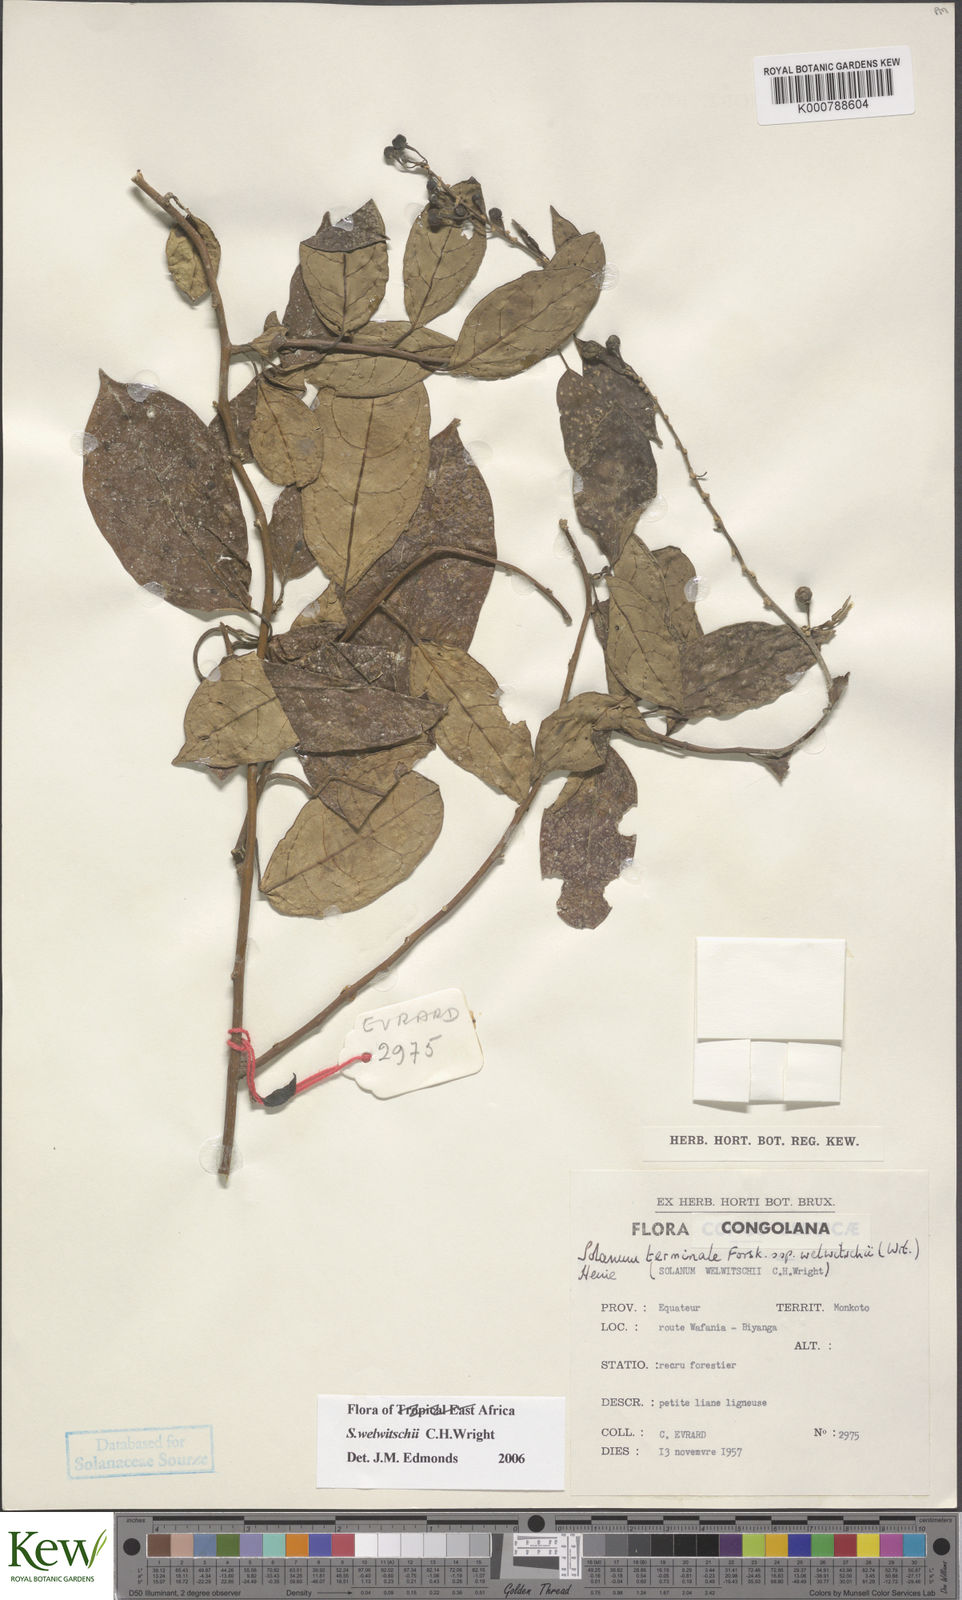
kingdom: Plantae
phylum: Tracheophyta
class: Magnoliopsida
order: Solanales
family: Solanaceae
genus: Solanum
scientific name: Solanum terminale
